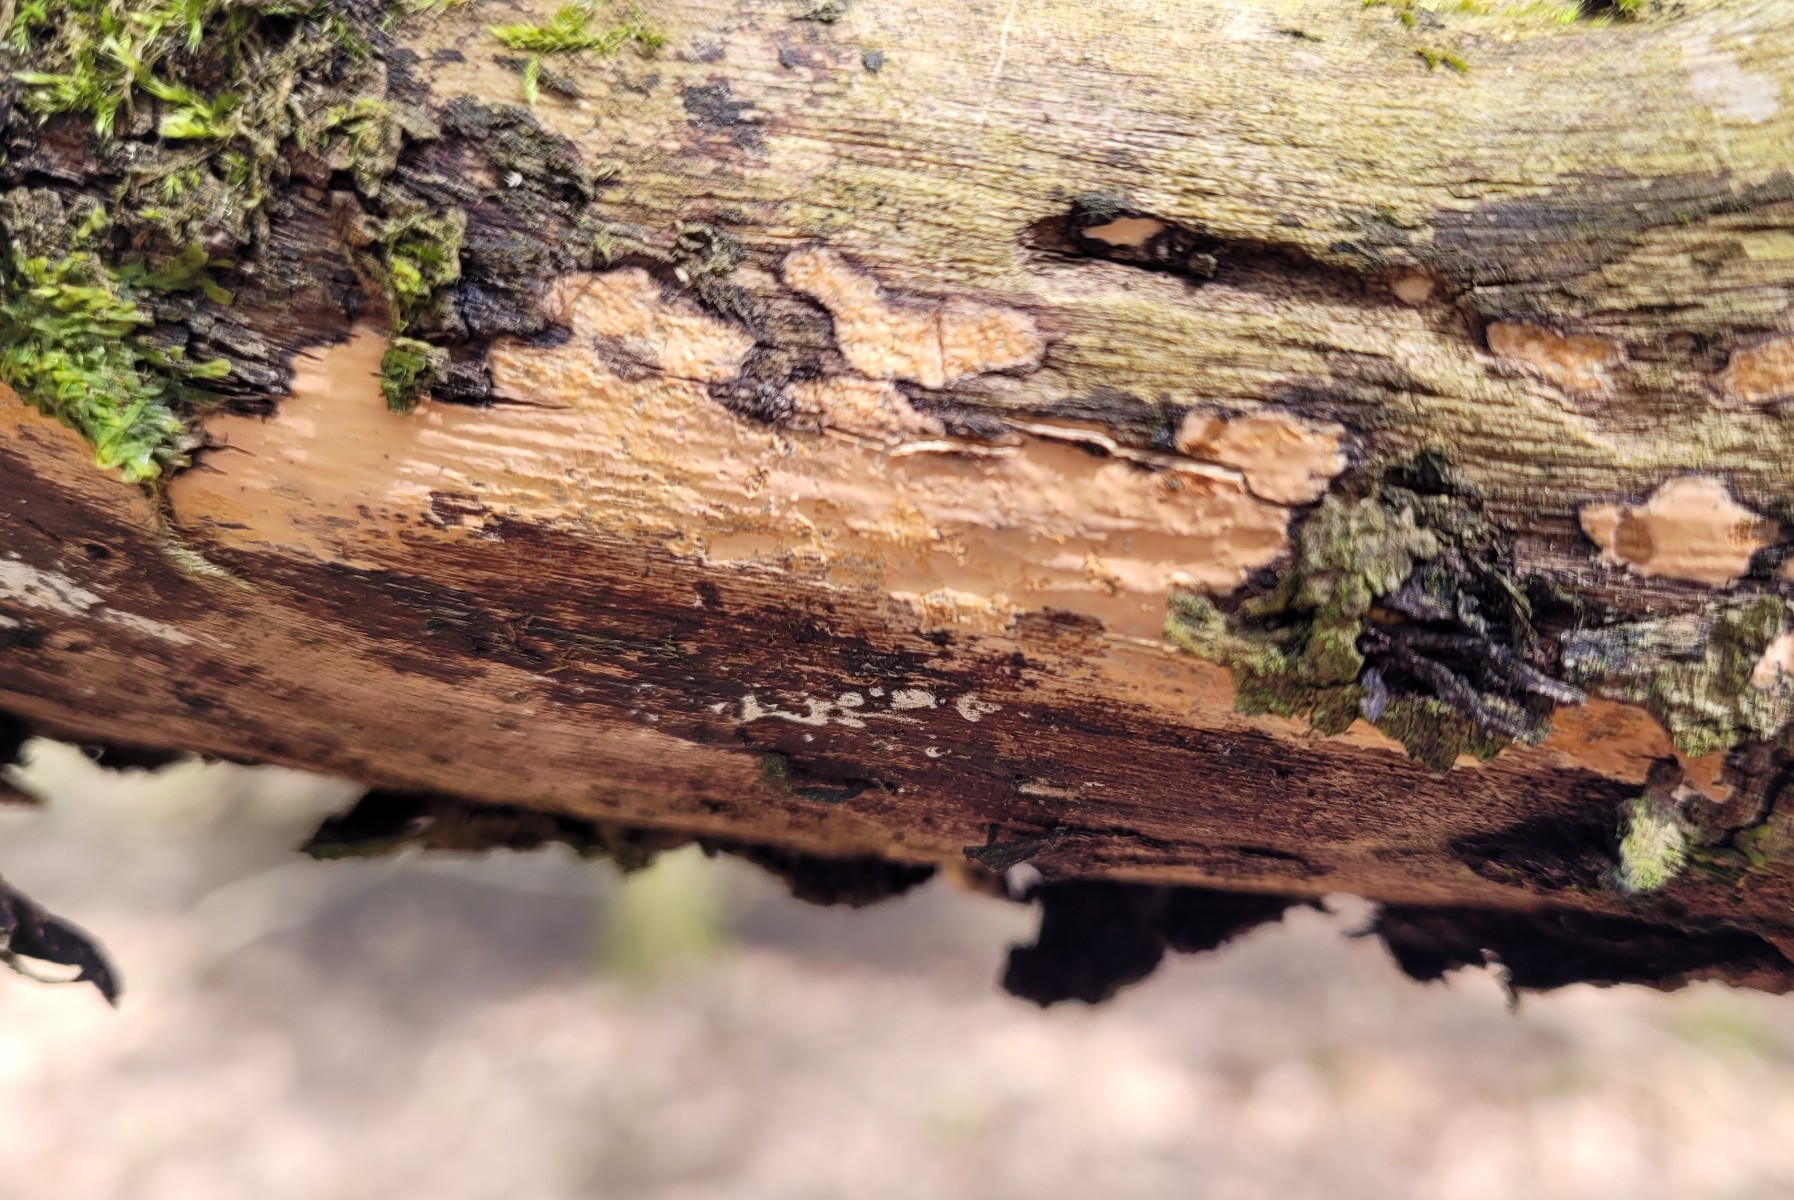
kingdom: Fungi
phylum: Basidiomycota
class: Agaricomycetes
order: Russulales
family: Peniophoraceae
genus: Peniophora
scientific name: Peniophora incarnata
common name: laksefarvet voksskind
